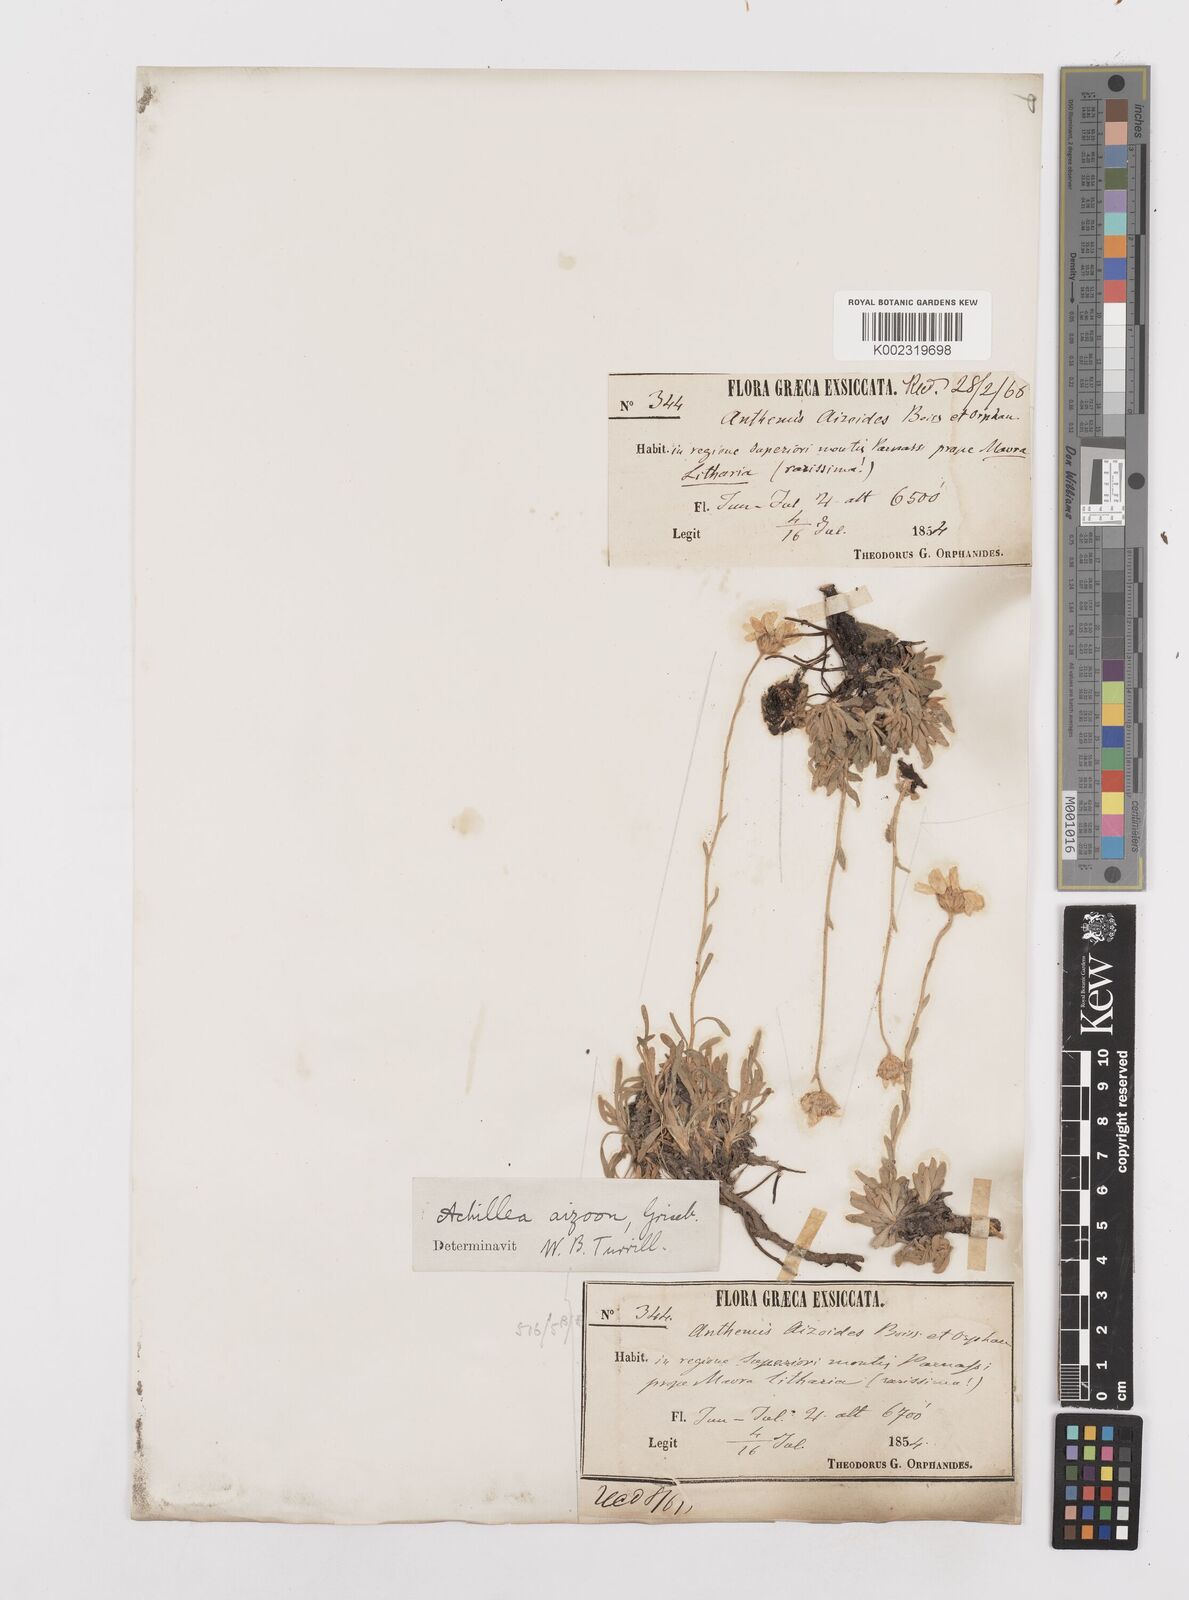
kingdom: Plantae
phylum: Tracheophyta
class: Magnoliopsida
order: Asterales
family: Asteraceae
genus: Achillea
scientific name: Achillea ageratifolia
